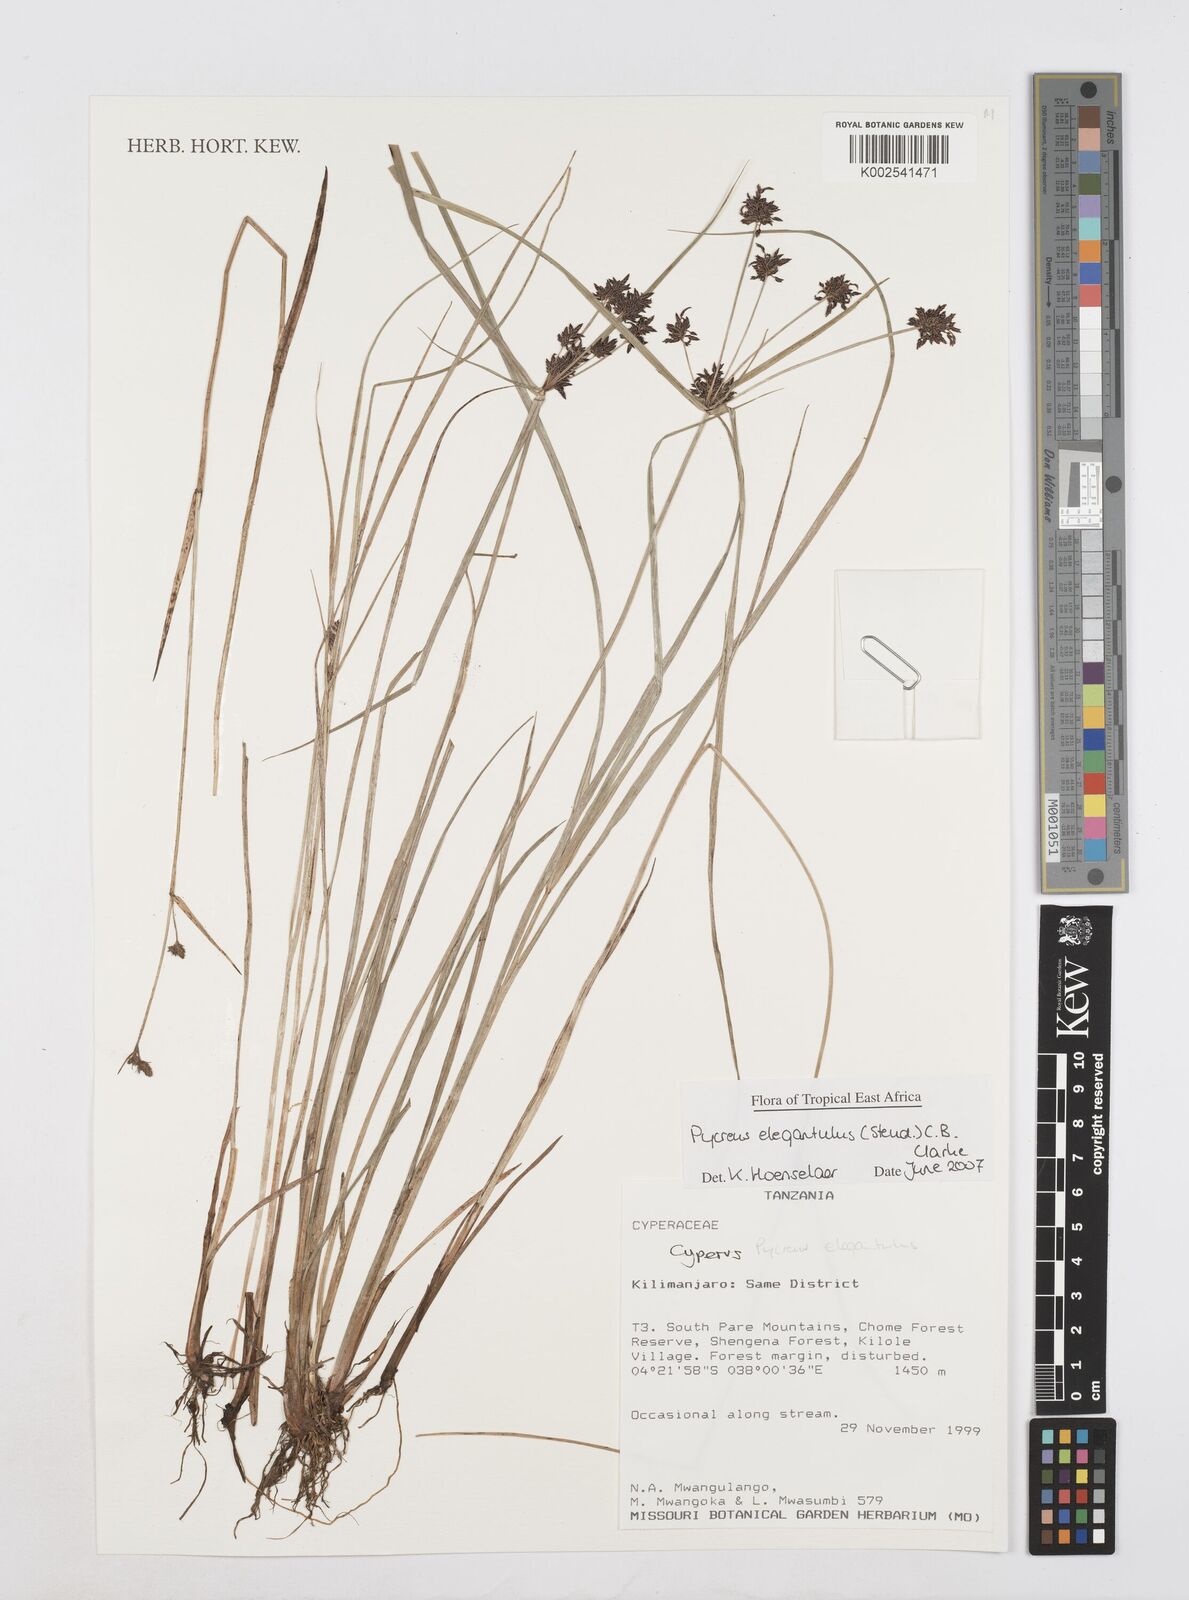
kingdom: Plantae
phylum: Tracheophyta
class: Liliopsida
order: Poales
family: Cyperaceae
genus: Cyperus
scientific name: Cyperus elegantulus
